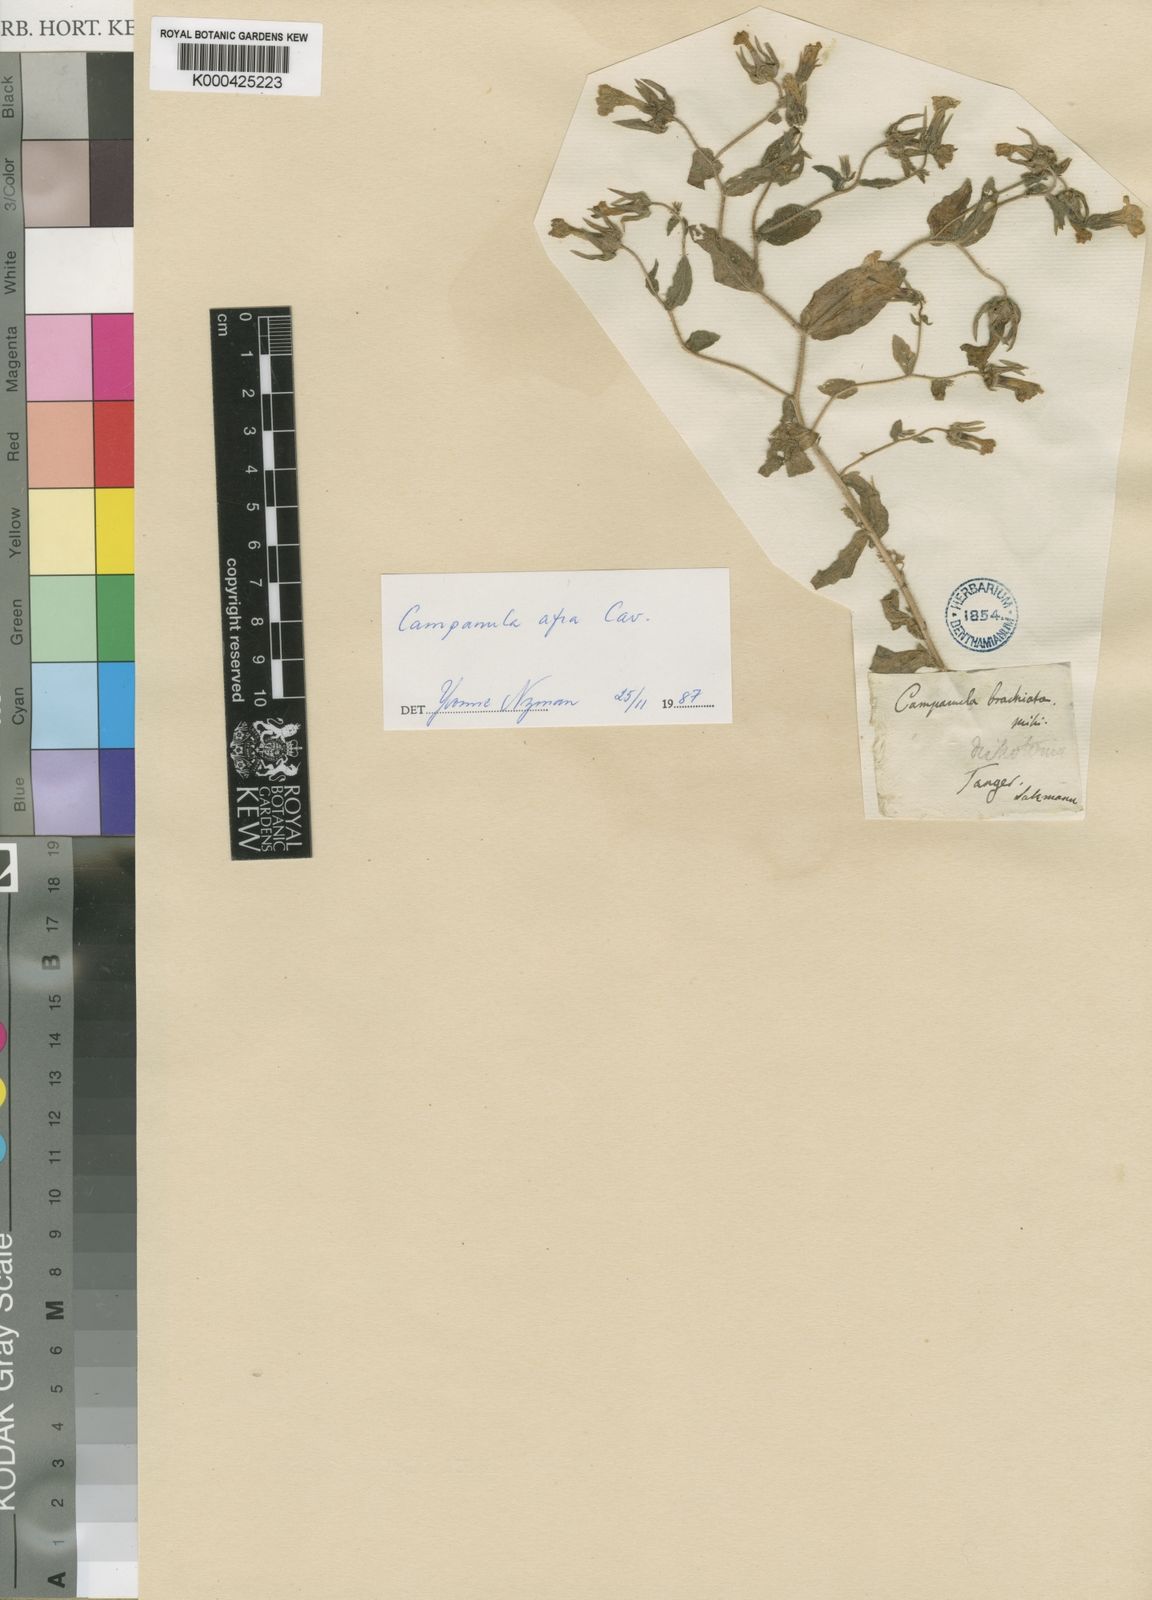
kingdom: Plantae
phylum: Tracheophyta
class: Magnoliopsida
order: Asterales
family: Campanulaceae
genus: Campanula
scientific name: Campanula dichotoma
